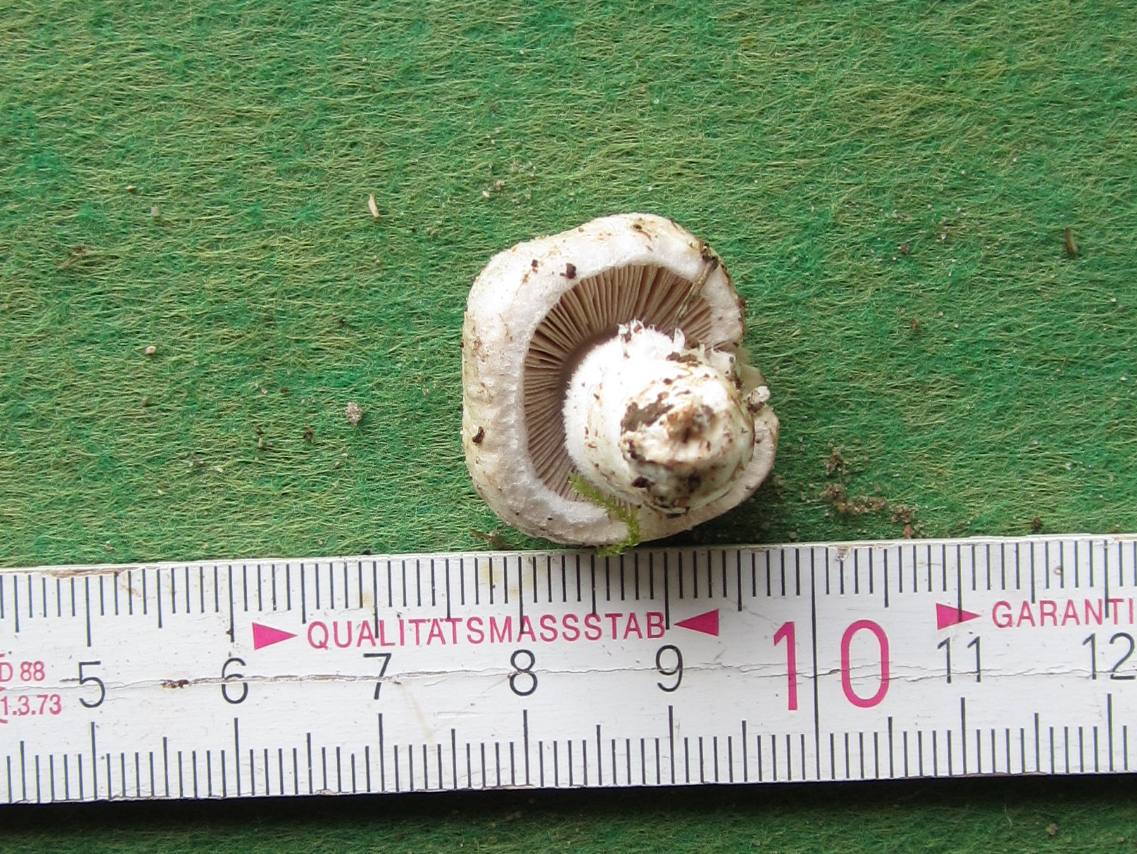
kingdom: Fungi
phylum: Basidiomycota
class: Agaricomycetes
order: Agaricales
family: Agaricaceae
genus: Agaricus
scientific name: Agaricus campestris
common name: mark-champignon
